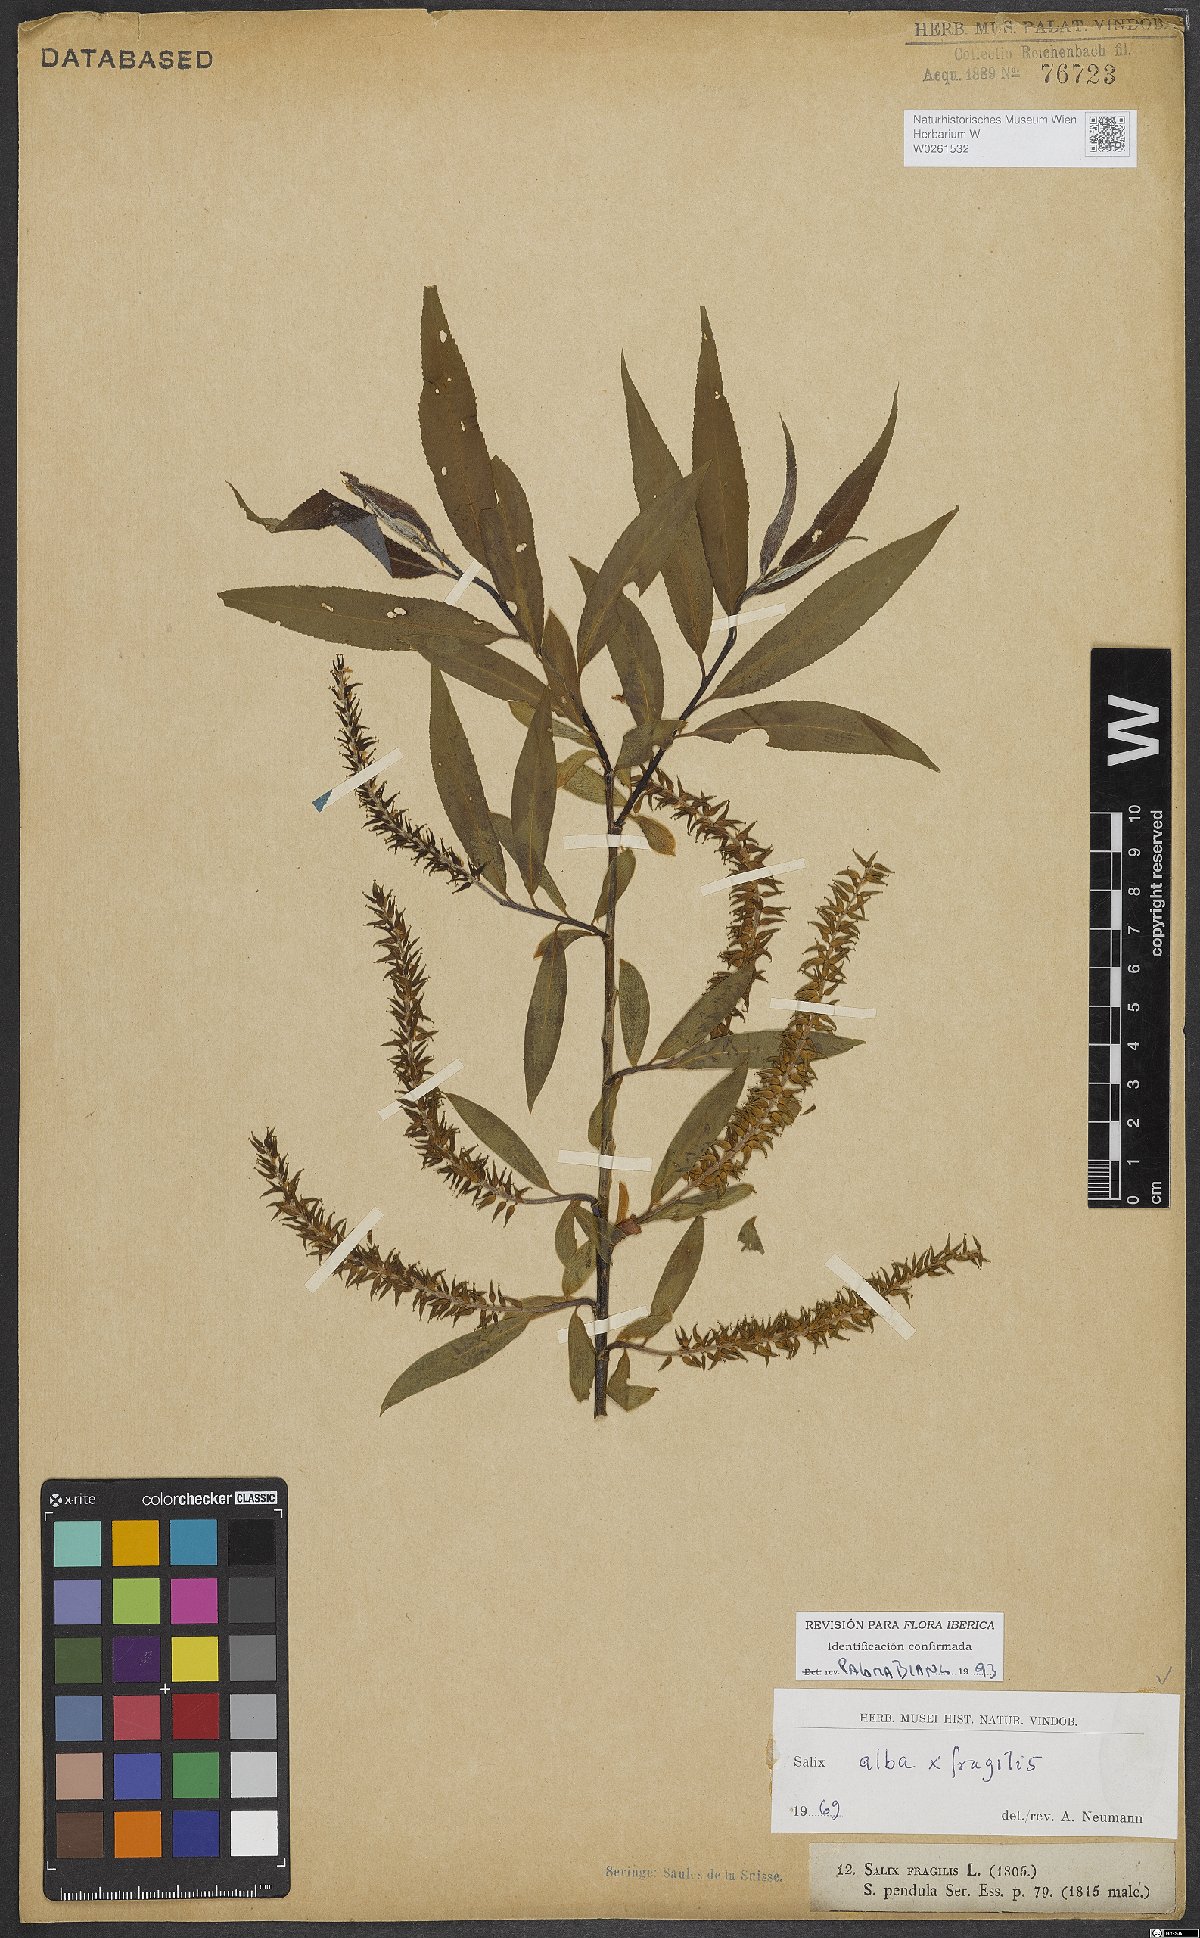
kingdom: Plantae
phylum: Tracheophyta
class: Magnoliopsida
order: Malpighiales
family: Salicaceae
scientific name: Salicaceae
